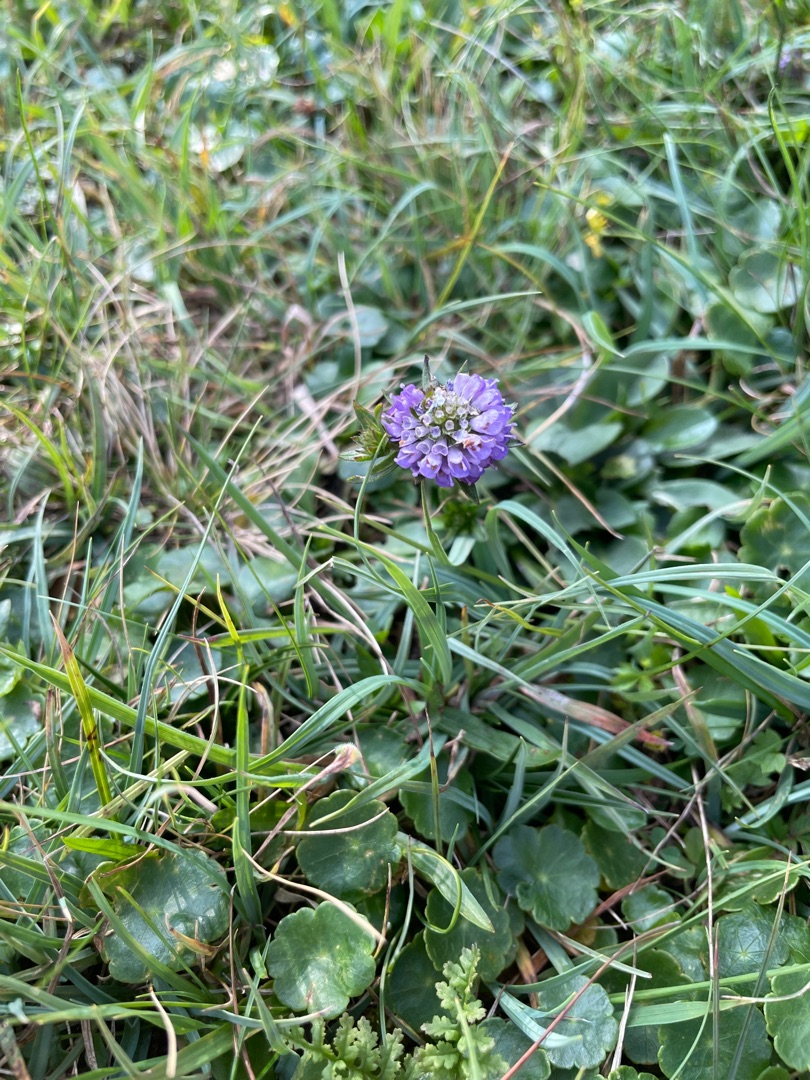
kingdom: Plantae
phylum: Tracheophyta
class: Magnoliopsida
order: Dipsacales
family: Caprifoliaceae
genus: Succisa
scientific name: Succisa pratensis
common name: Djævelsbid
